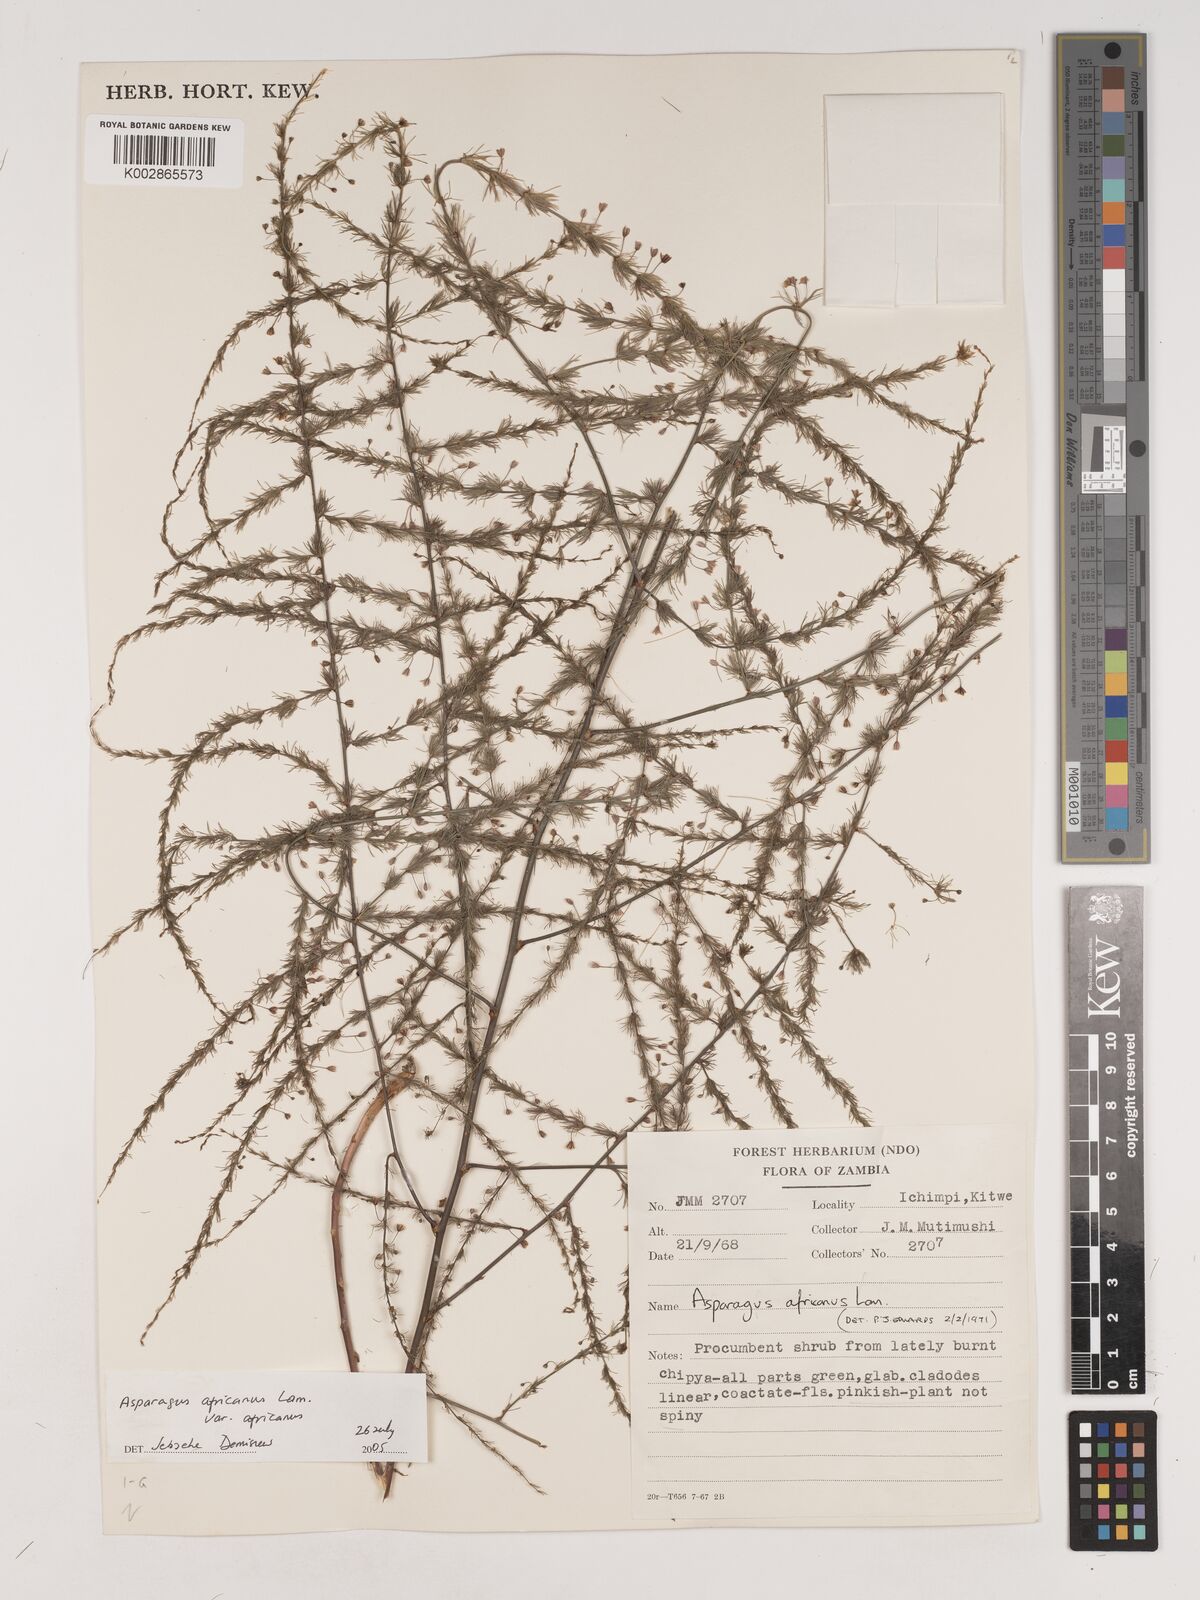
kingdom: Plantae
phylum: Tracheophyta
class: Liliopsida
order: Asparagales
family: Asparagaceae
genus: Asparagus
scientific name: Asparagus
